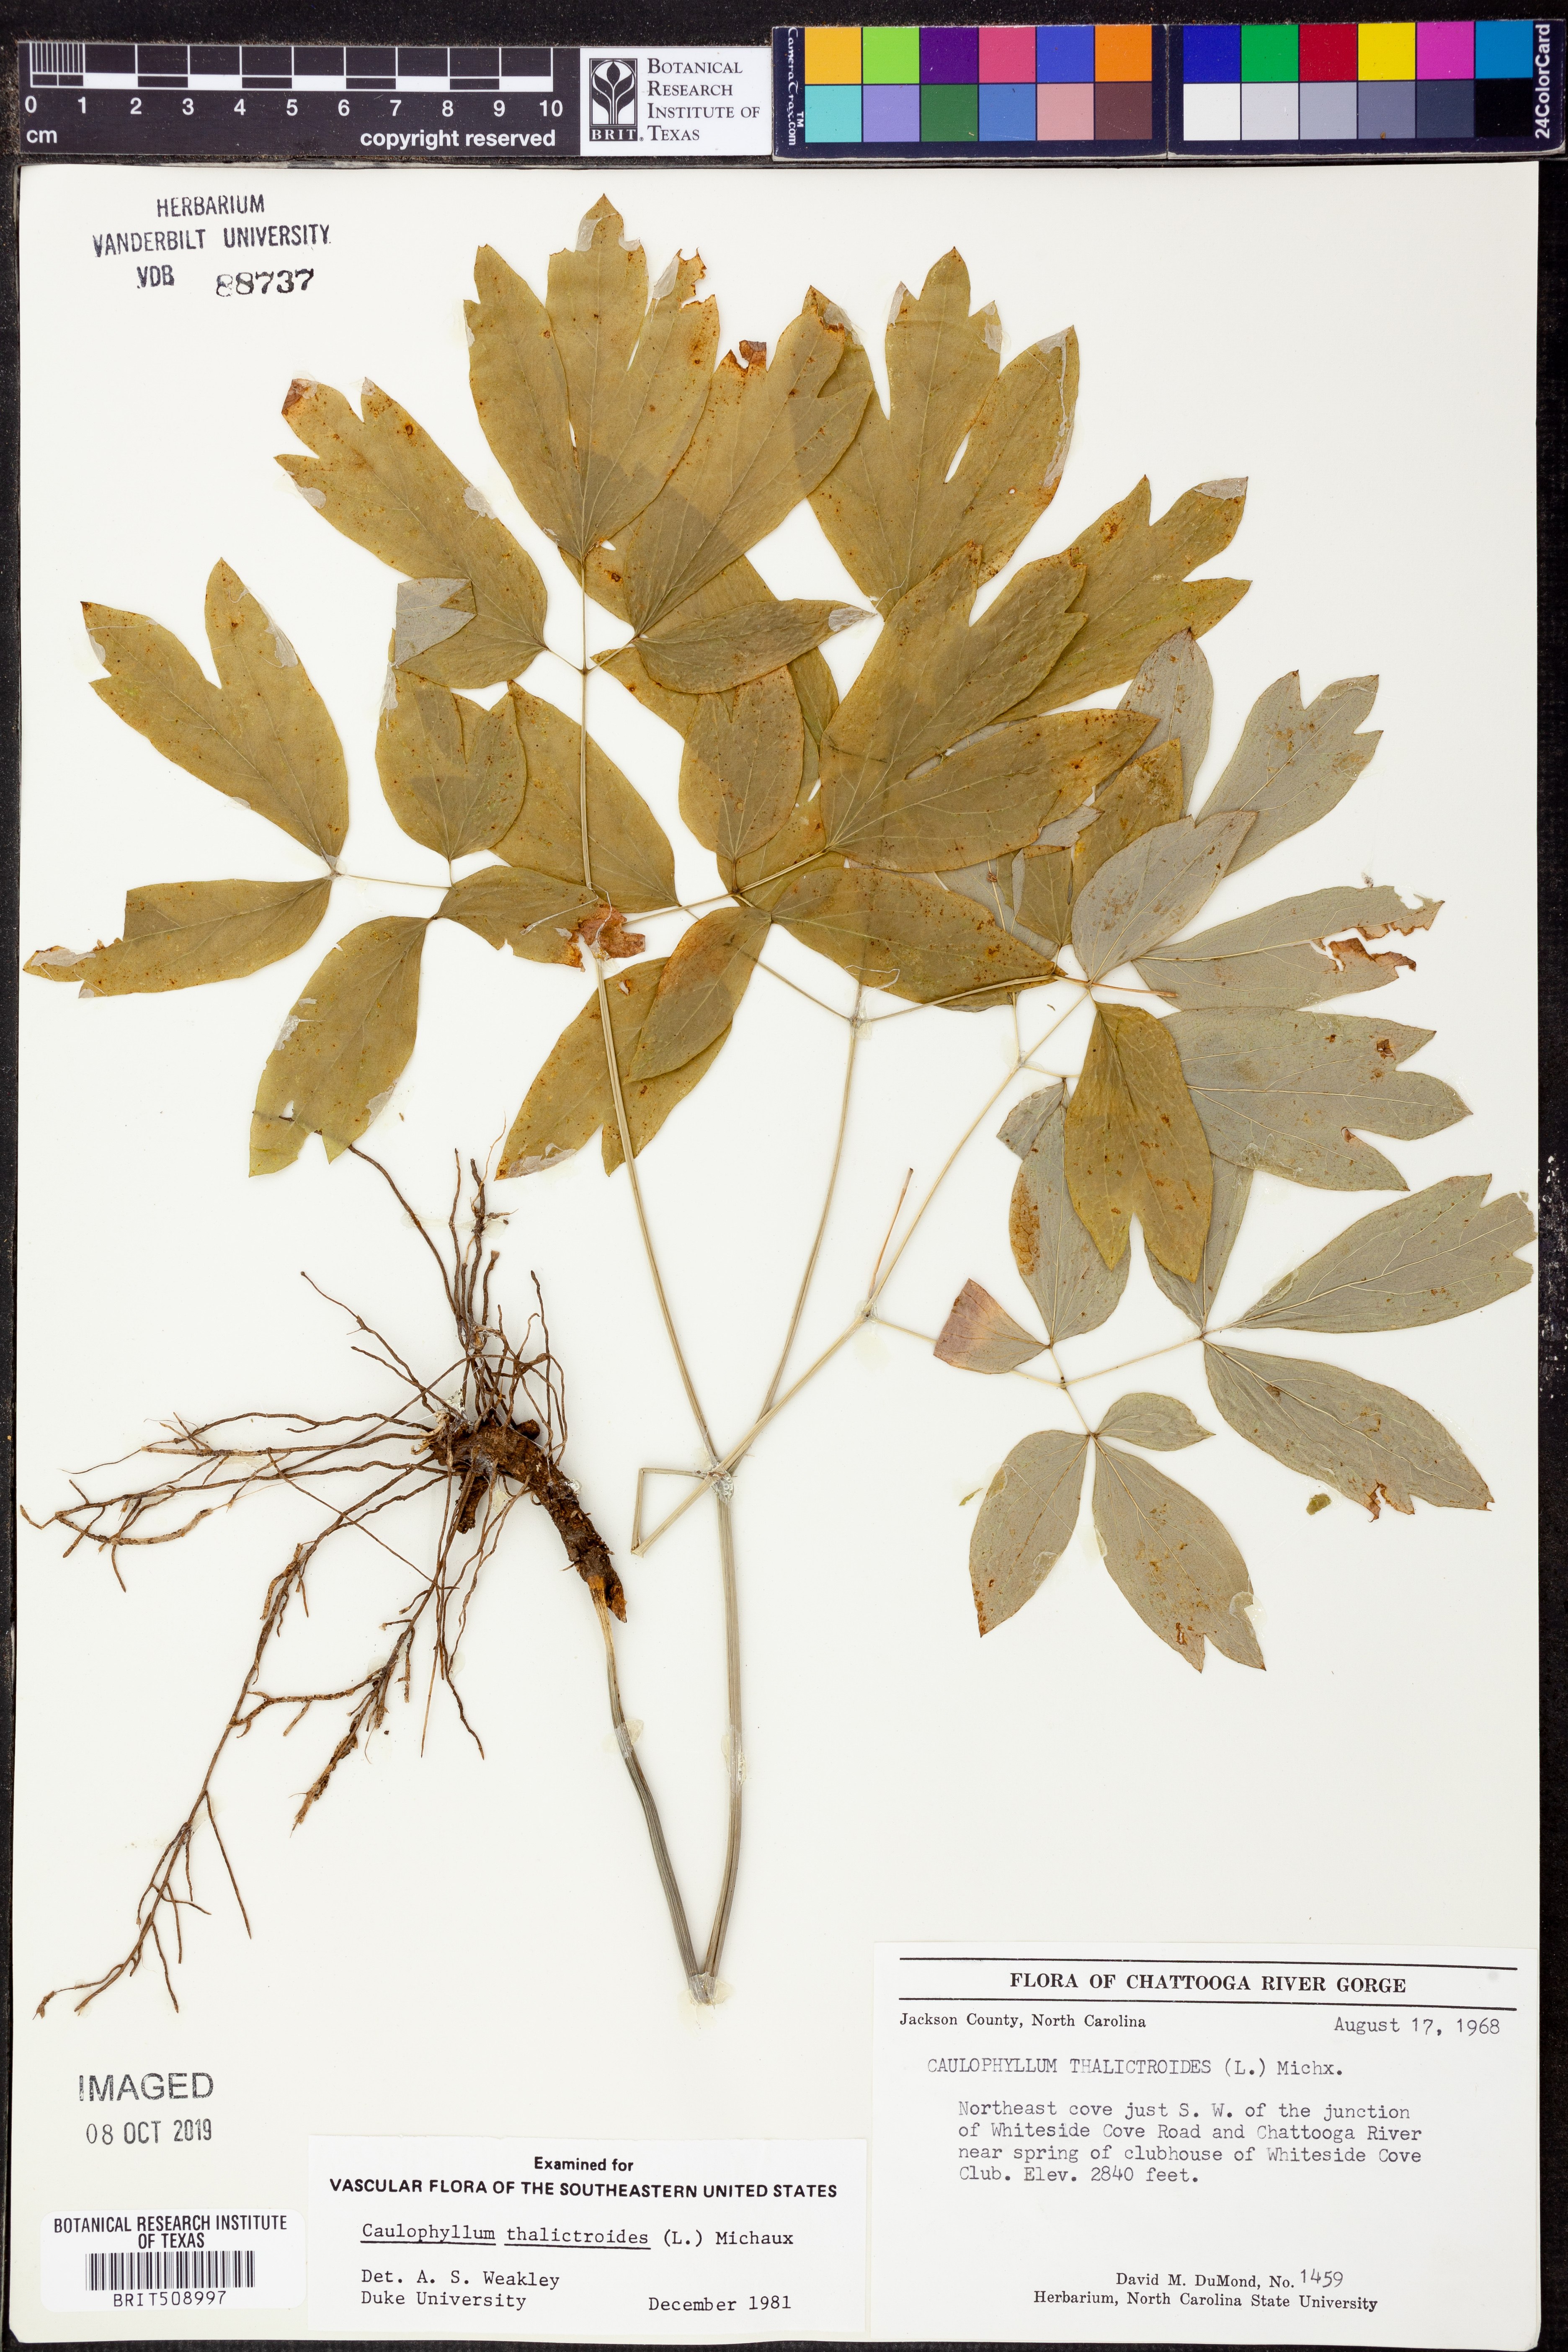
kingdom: Plantae
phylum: Tracheophyta
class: Magnoliopsida
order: Ranunculales
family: Berberidaceae
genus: Caulophyllum
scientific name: Caulophyllum thalictroides
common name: Blue cohosh
